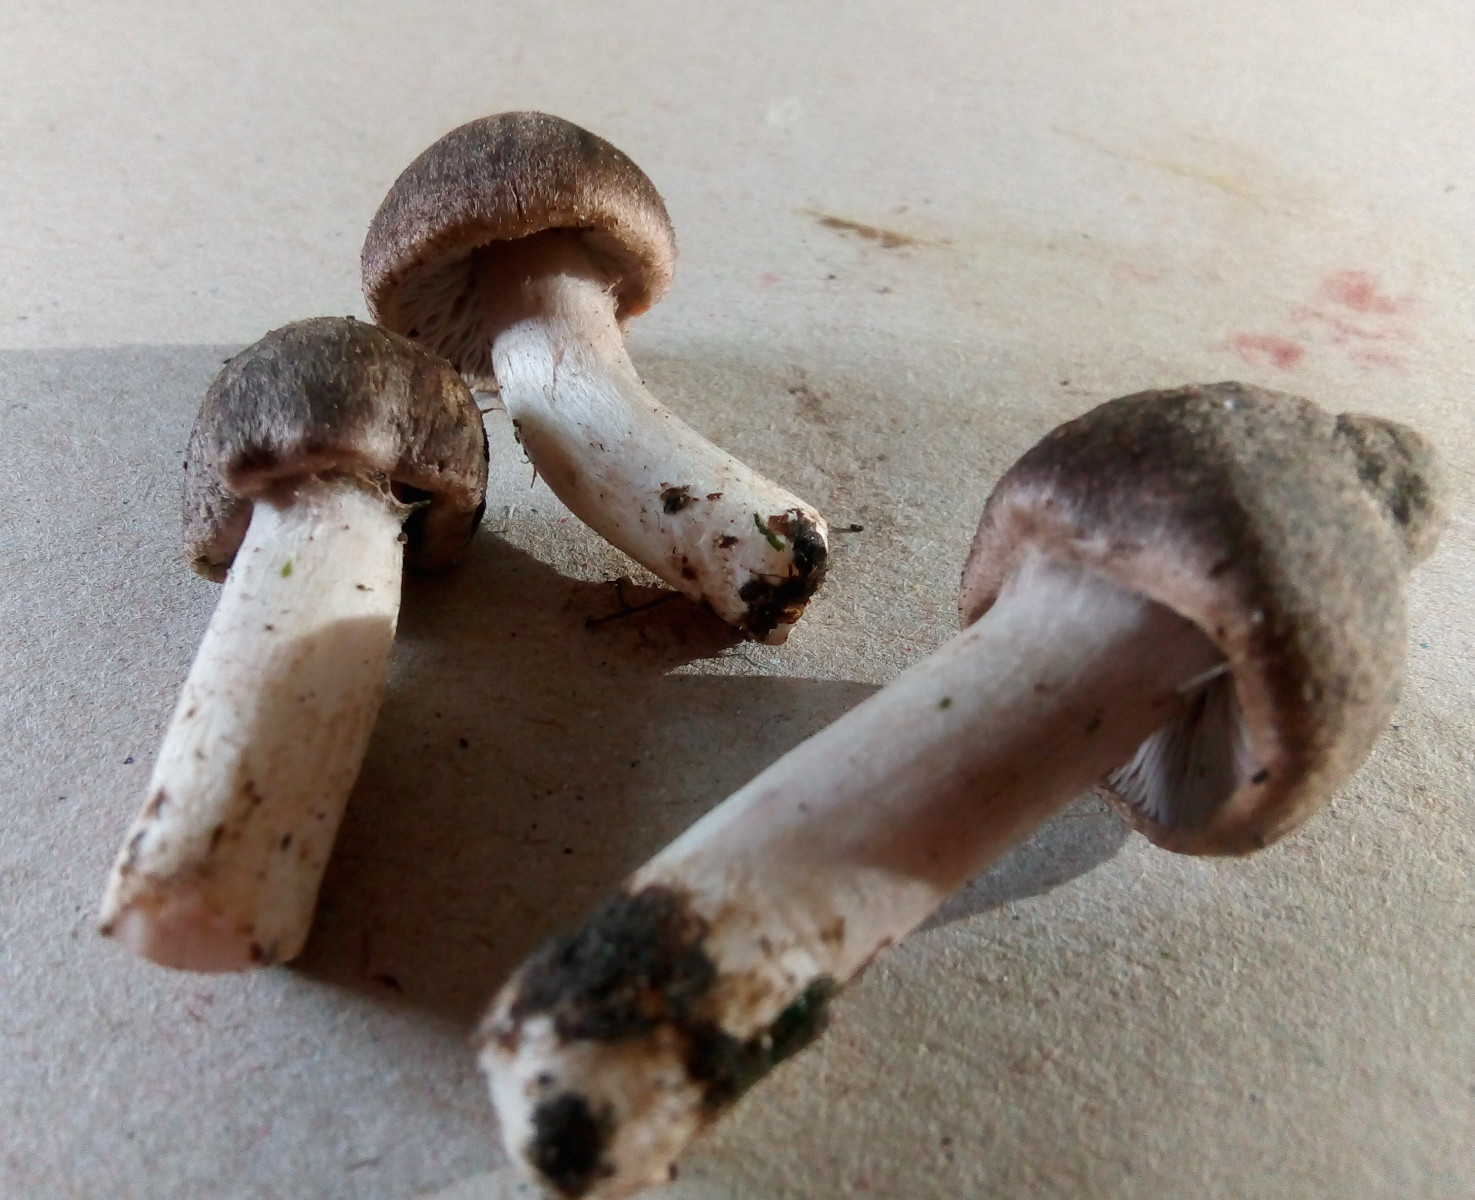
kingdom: Fungi
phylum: Basidiomycota
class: Agaricomycetes
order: Agaricales
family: Tricholomataceae
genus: Tricholoma
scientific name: Tricholoma argyraceum
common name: slør-ridderhat
